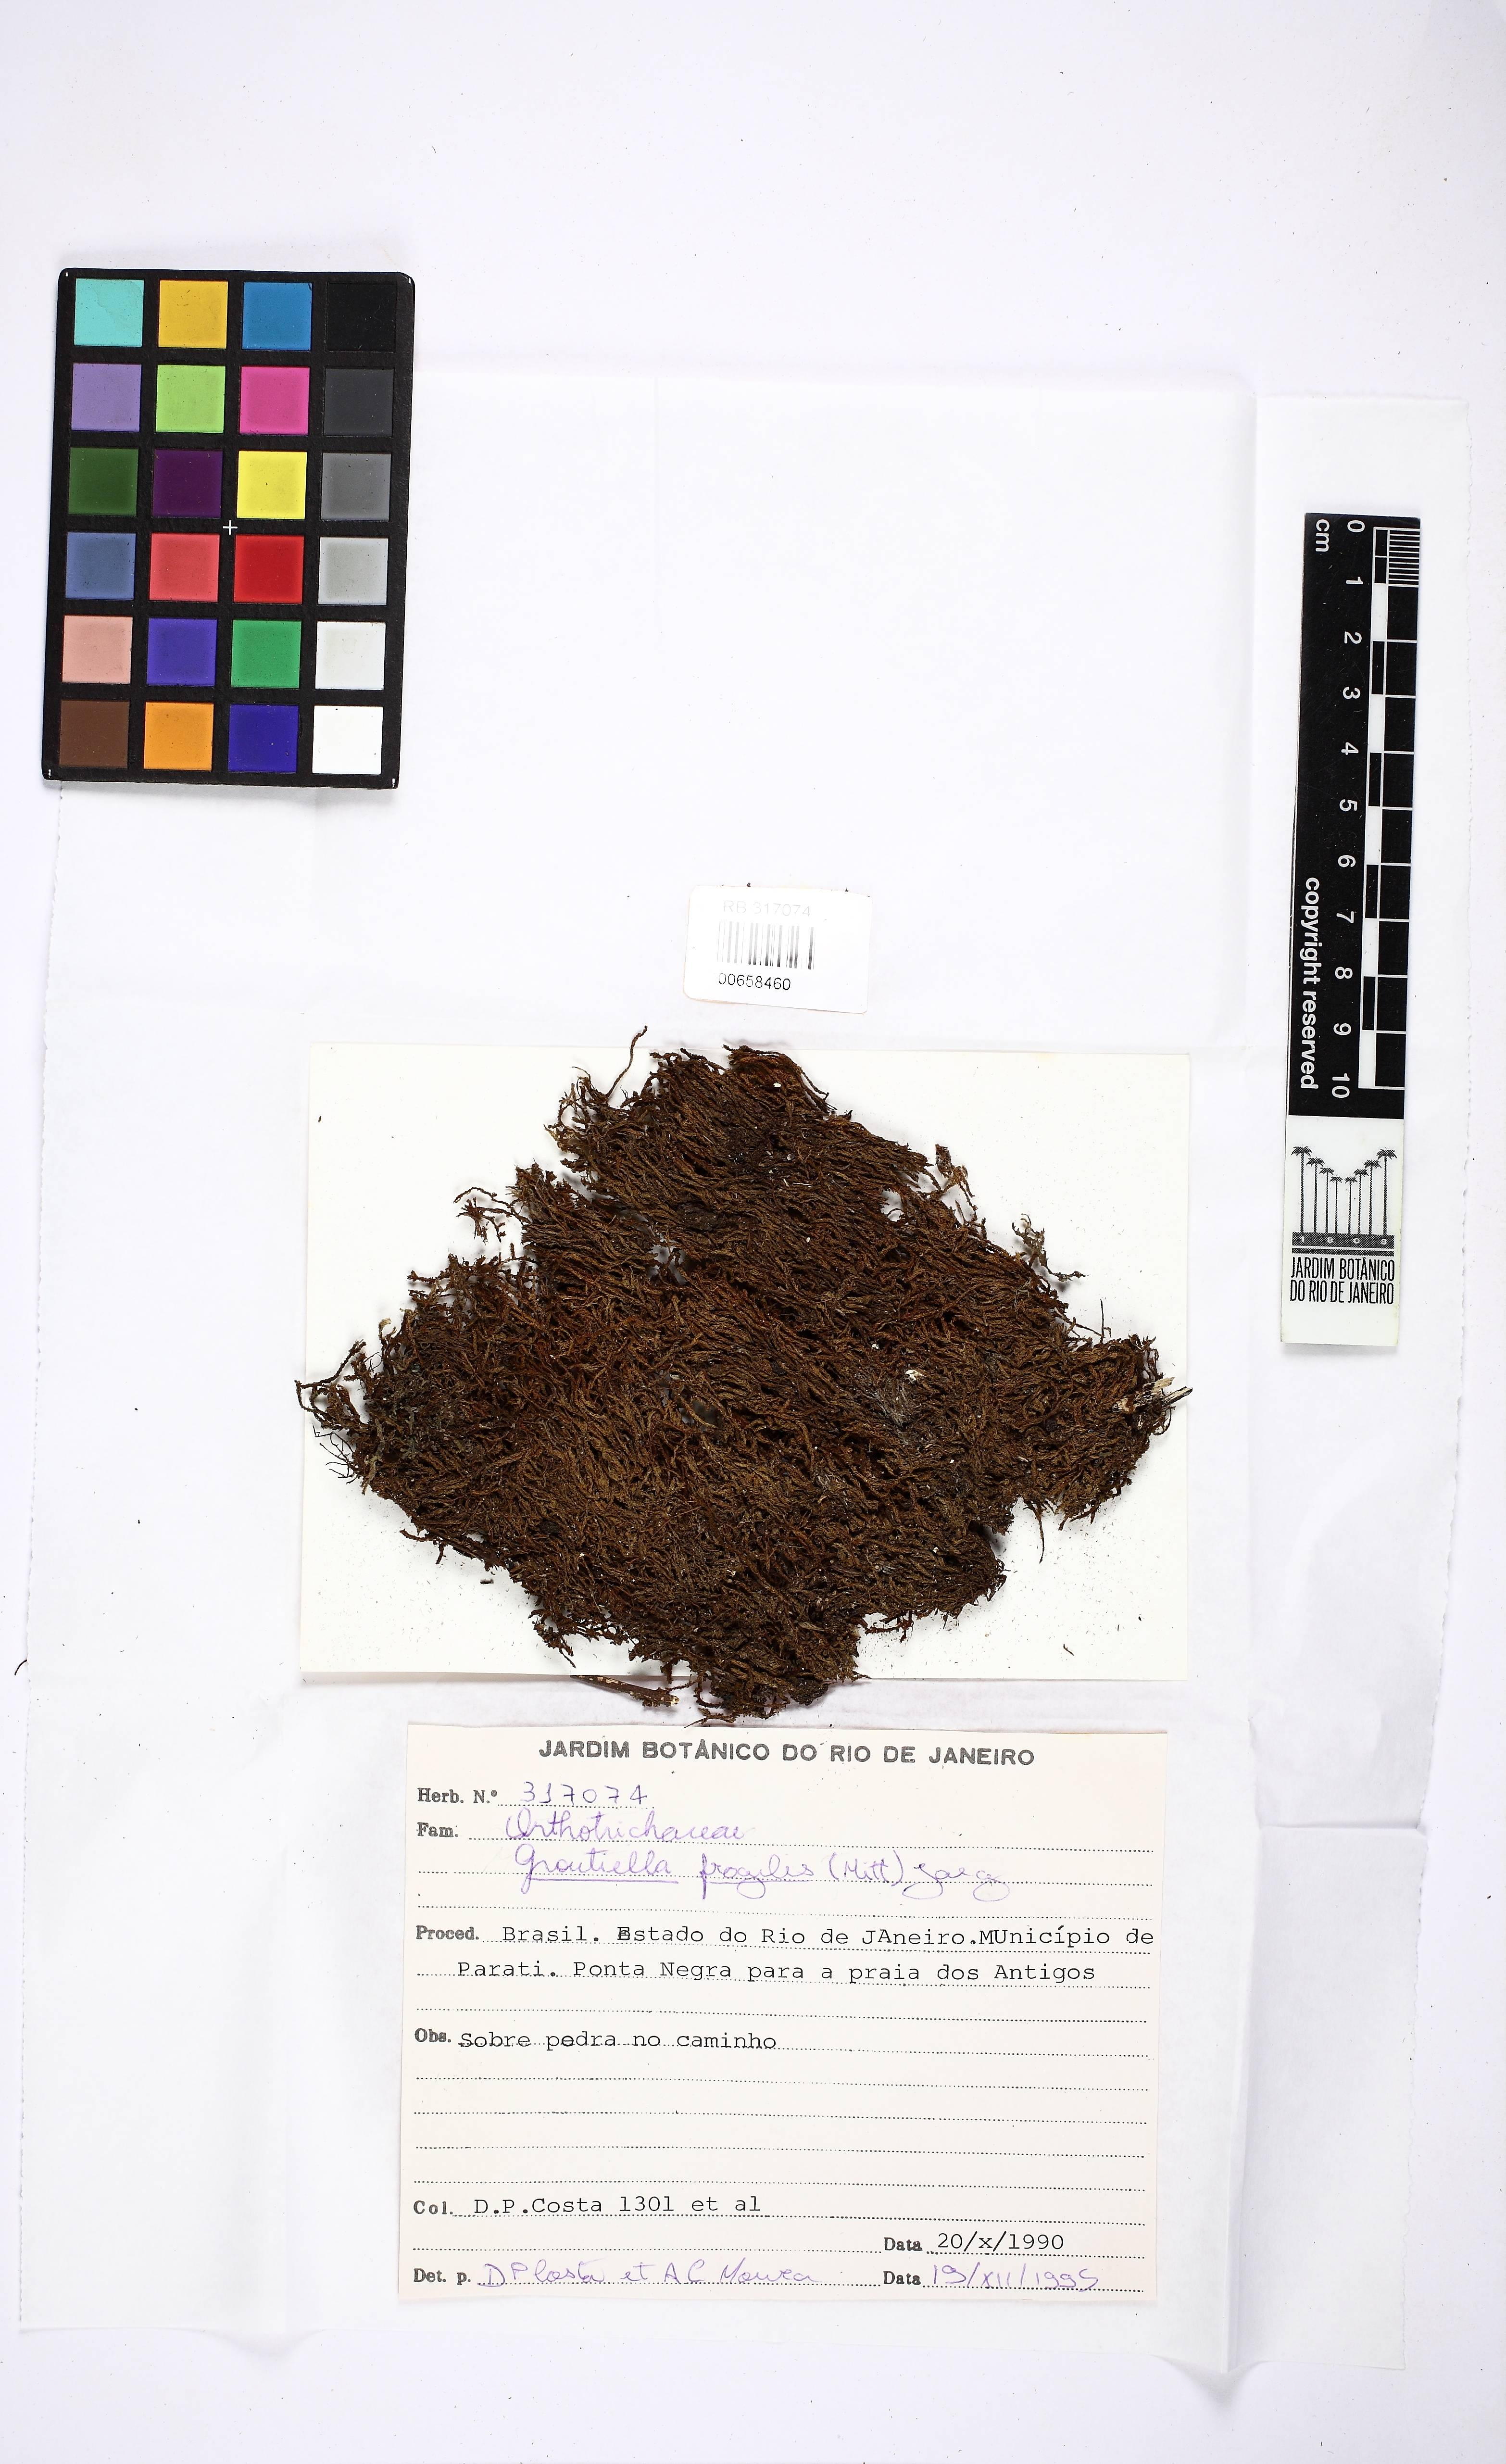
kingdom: Plantae
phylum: Bryophyta
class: Bryopsida
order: Orthotrichales
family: Orthotrichaceae
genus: Groutiella
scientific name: Groutiella tomentosa
